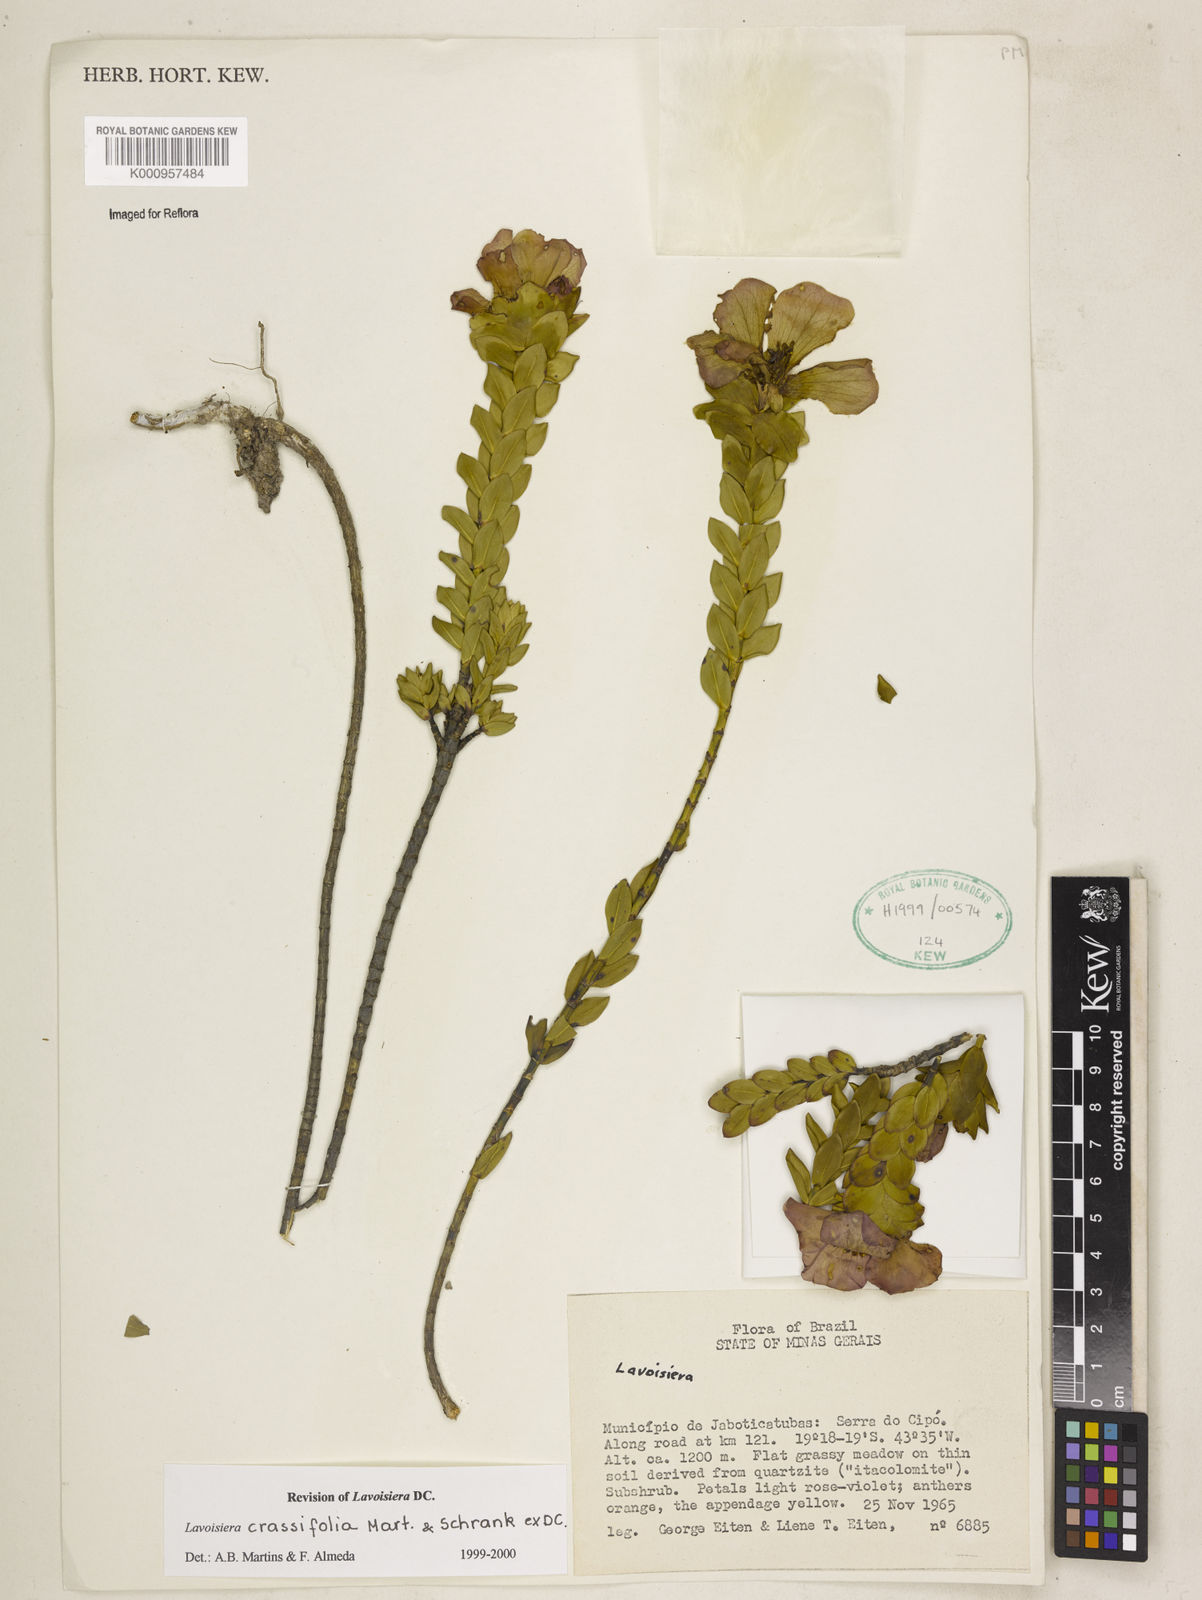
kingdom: Plantae
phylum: Tracheophyta
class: Magnoliopsida
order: Myrtales
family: Melastomataceae
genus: Microlicia
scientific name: Microlicia crassifolia
